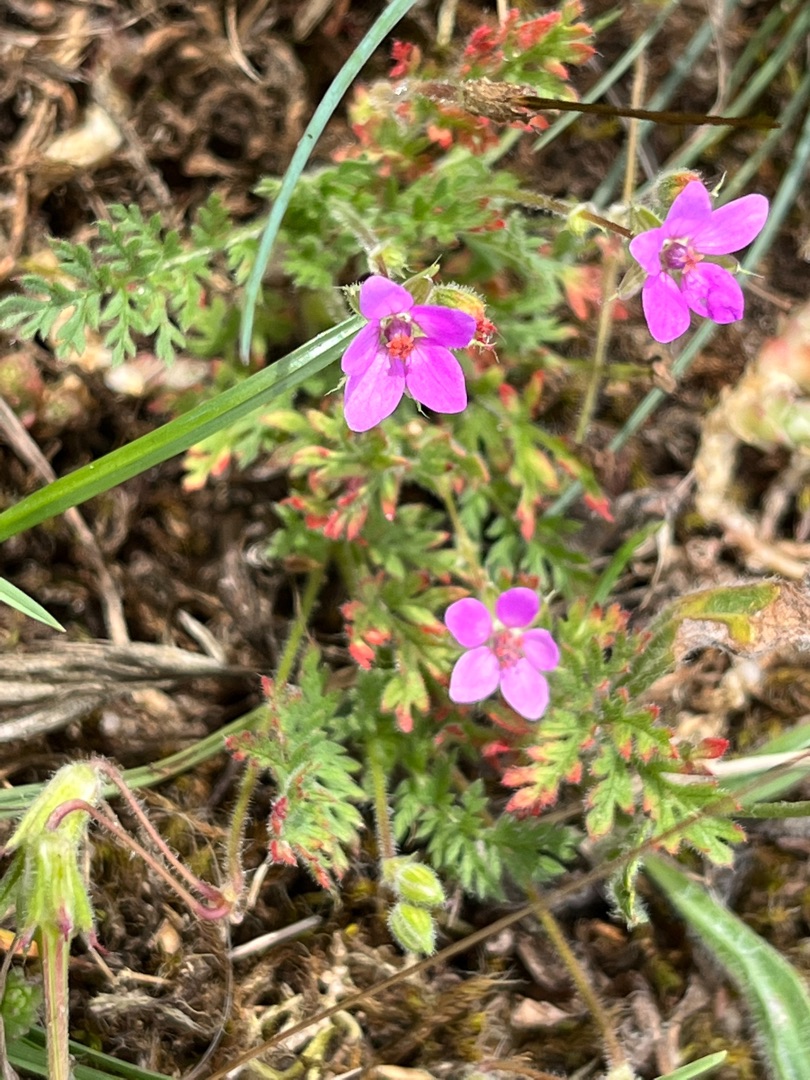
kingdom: Plantae
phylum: Tracheophyta
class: Magnoliopsida
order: Geraniales
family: Geraniaceae
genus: Erodium
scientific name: Erodium cicutarium
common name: Hejrenæb
